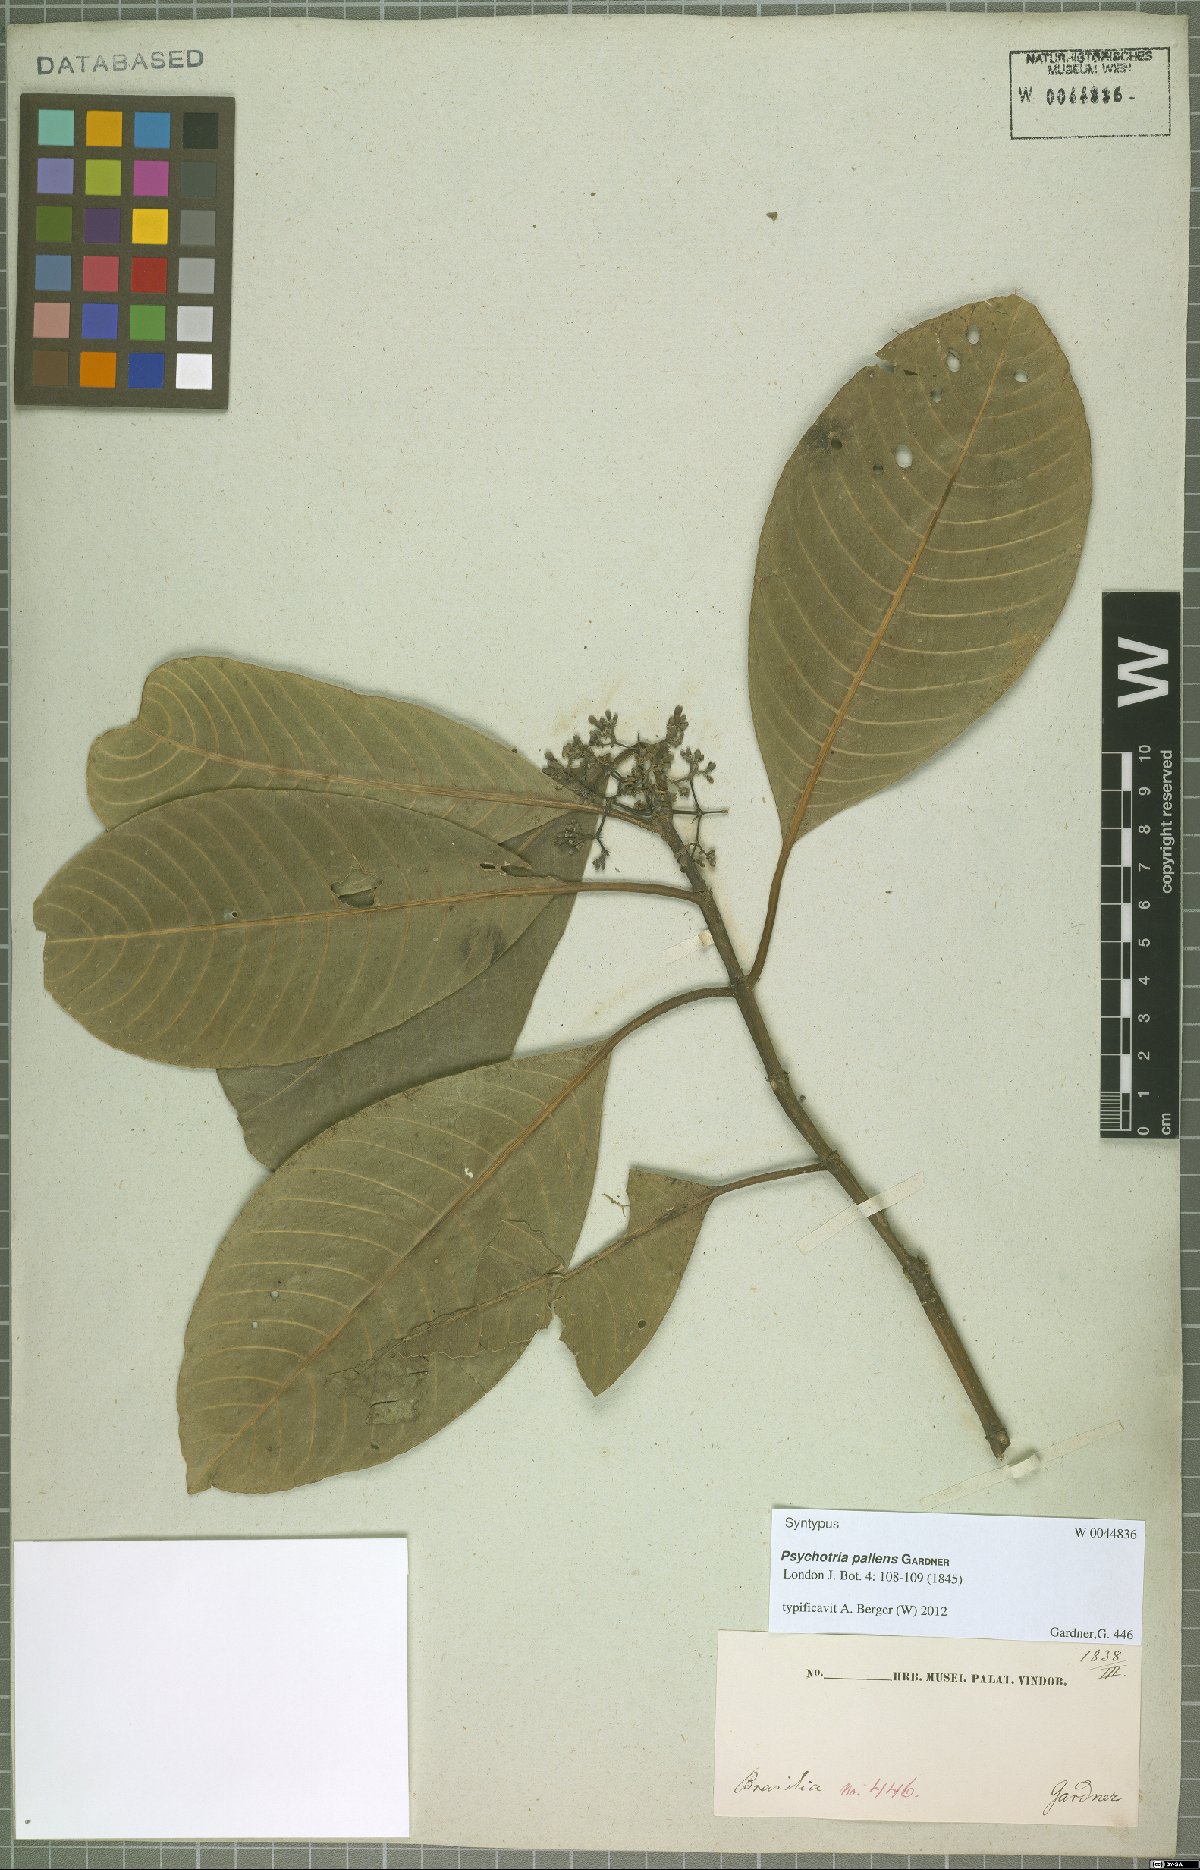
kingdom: Plantae
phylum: Tracheophyta
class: Magnoliopsida
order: Gentianales
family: Rubiaceae
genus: Psychotria
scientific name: Psychotria pallens
